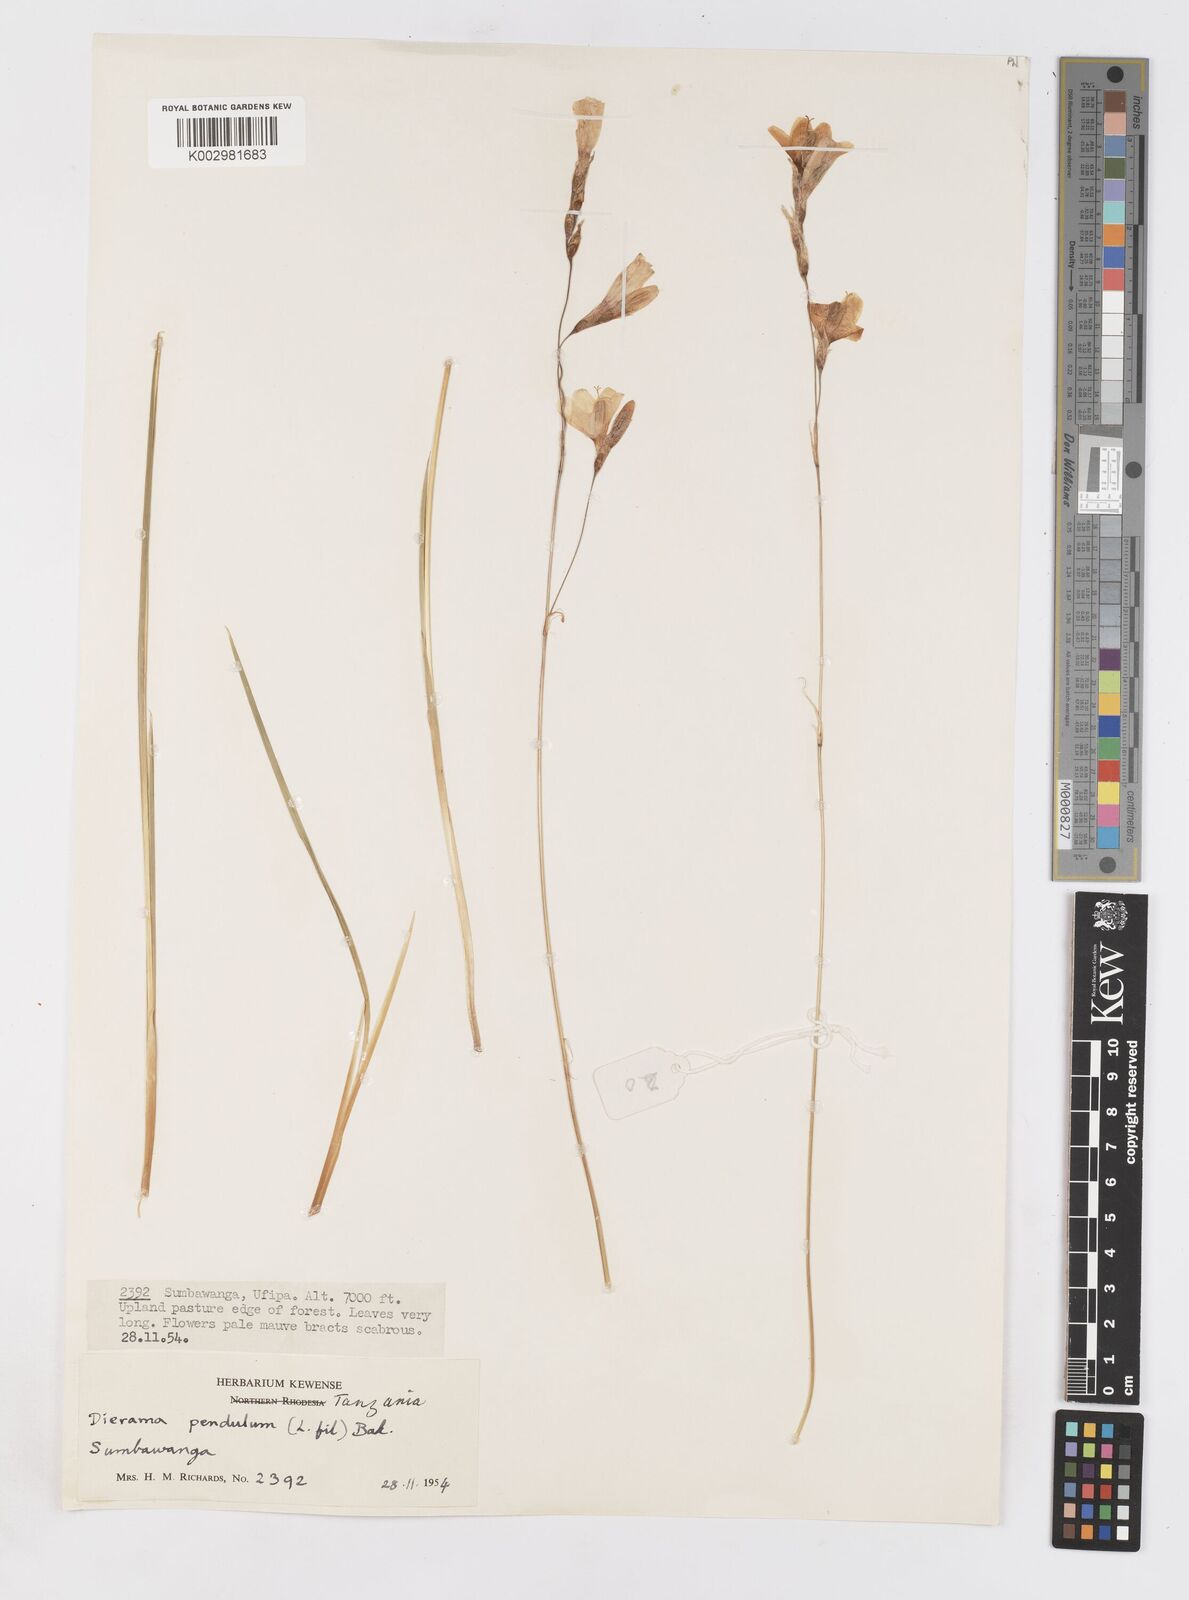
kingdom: Plantae
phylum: Tracheophyta
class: Liliopsida
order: Asparagales
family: Iridaceae
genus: Dierama
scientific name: Dierama parviflorum
